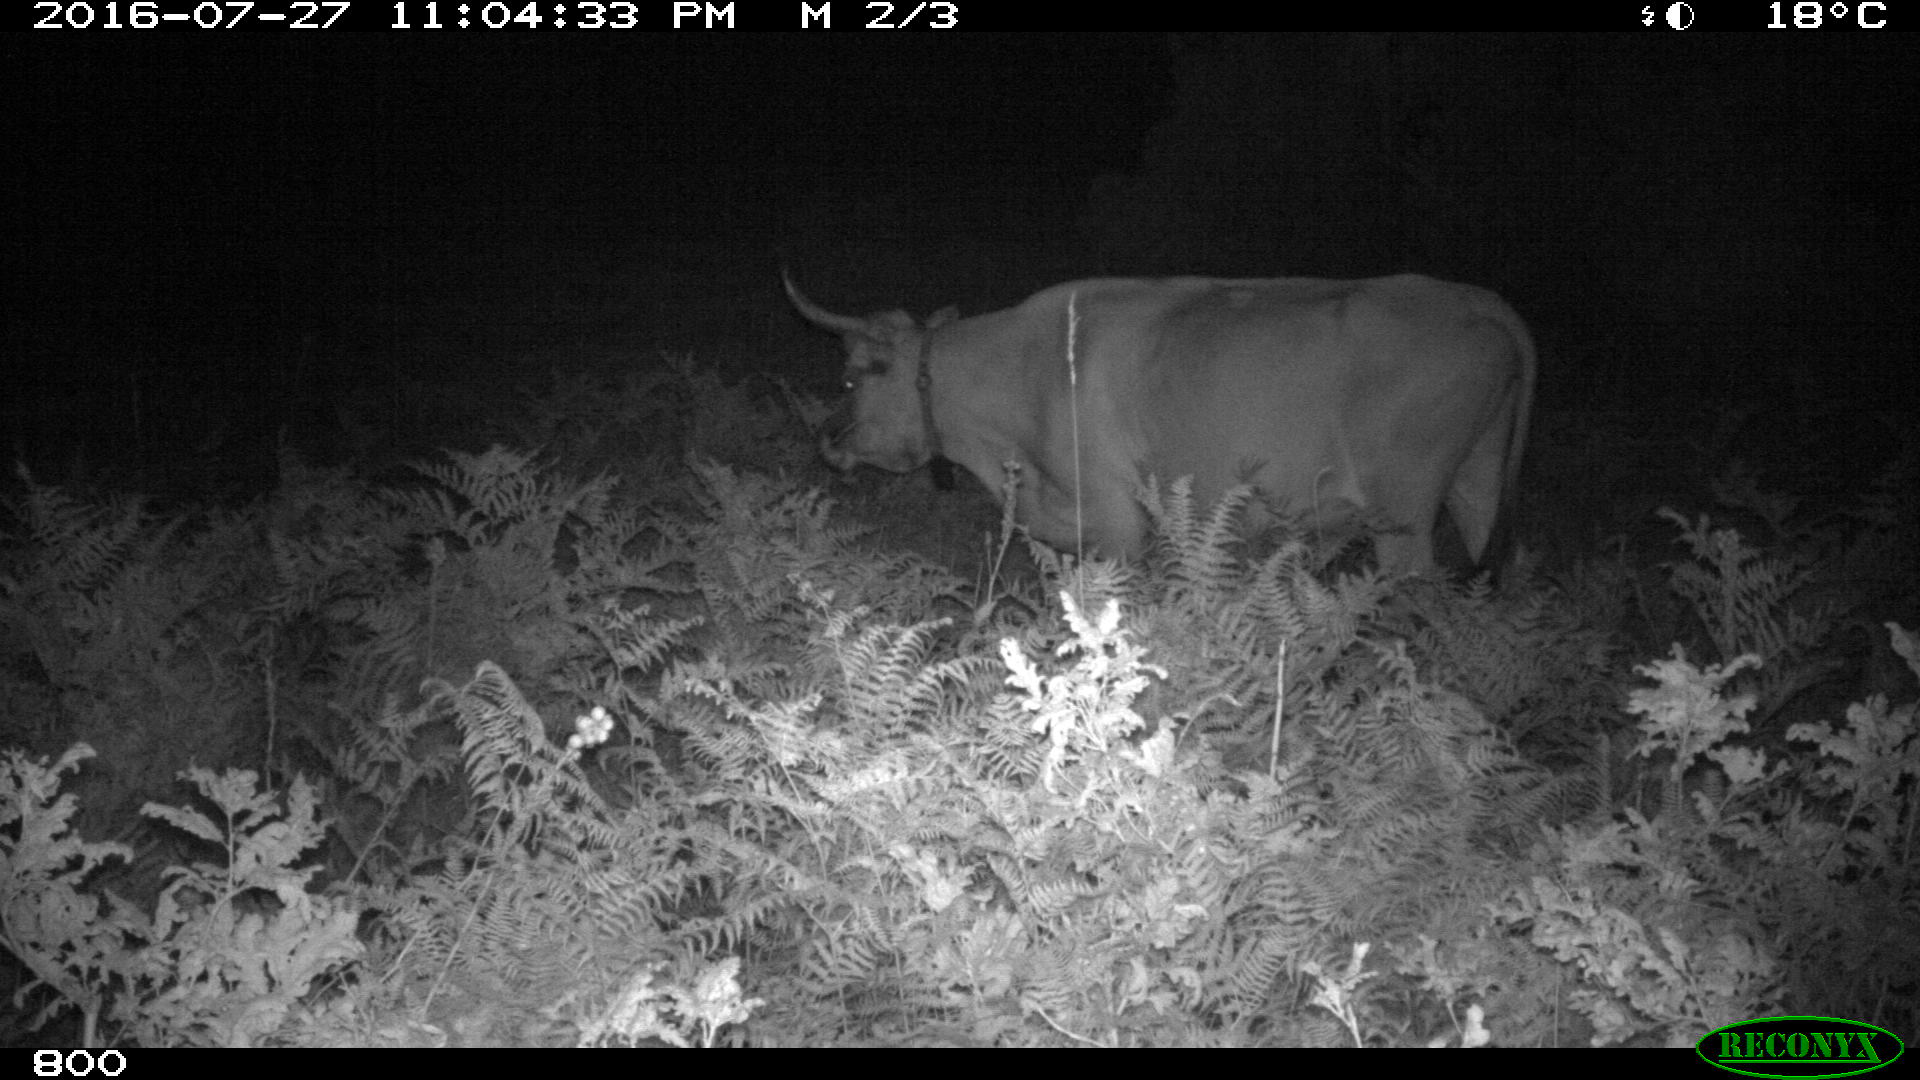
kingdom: Animalia
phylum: Chordata
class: Mammalia
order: Artiodactyla
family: Bovidae
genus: Bos
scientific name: Bos taurus
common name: Domesticated cattle
